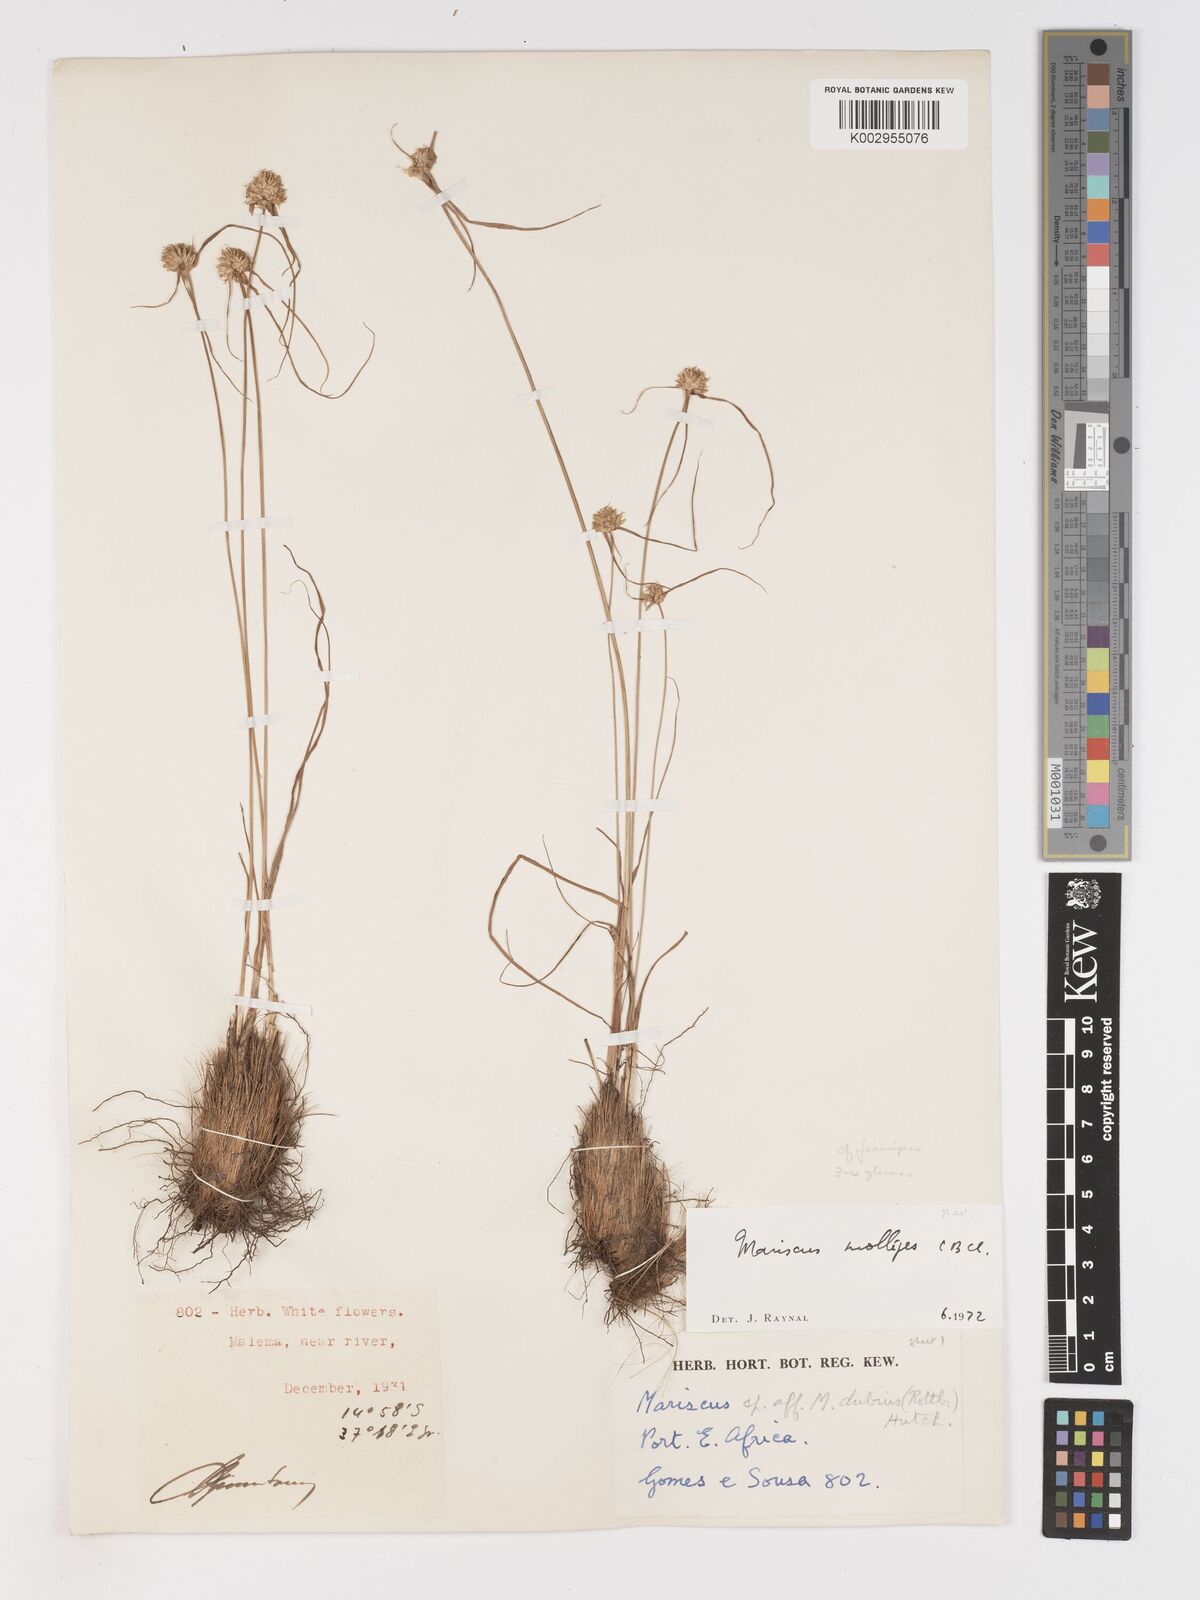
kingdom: Plantae
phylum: Tracheophyta
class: Liliopsida
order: Poales
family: Cyperaceae
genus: Cyperus
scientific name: Cyperus mollipes
